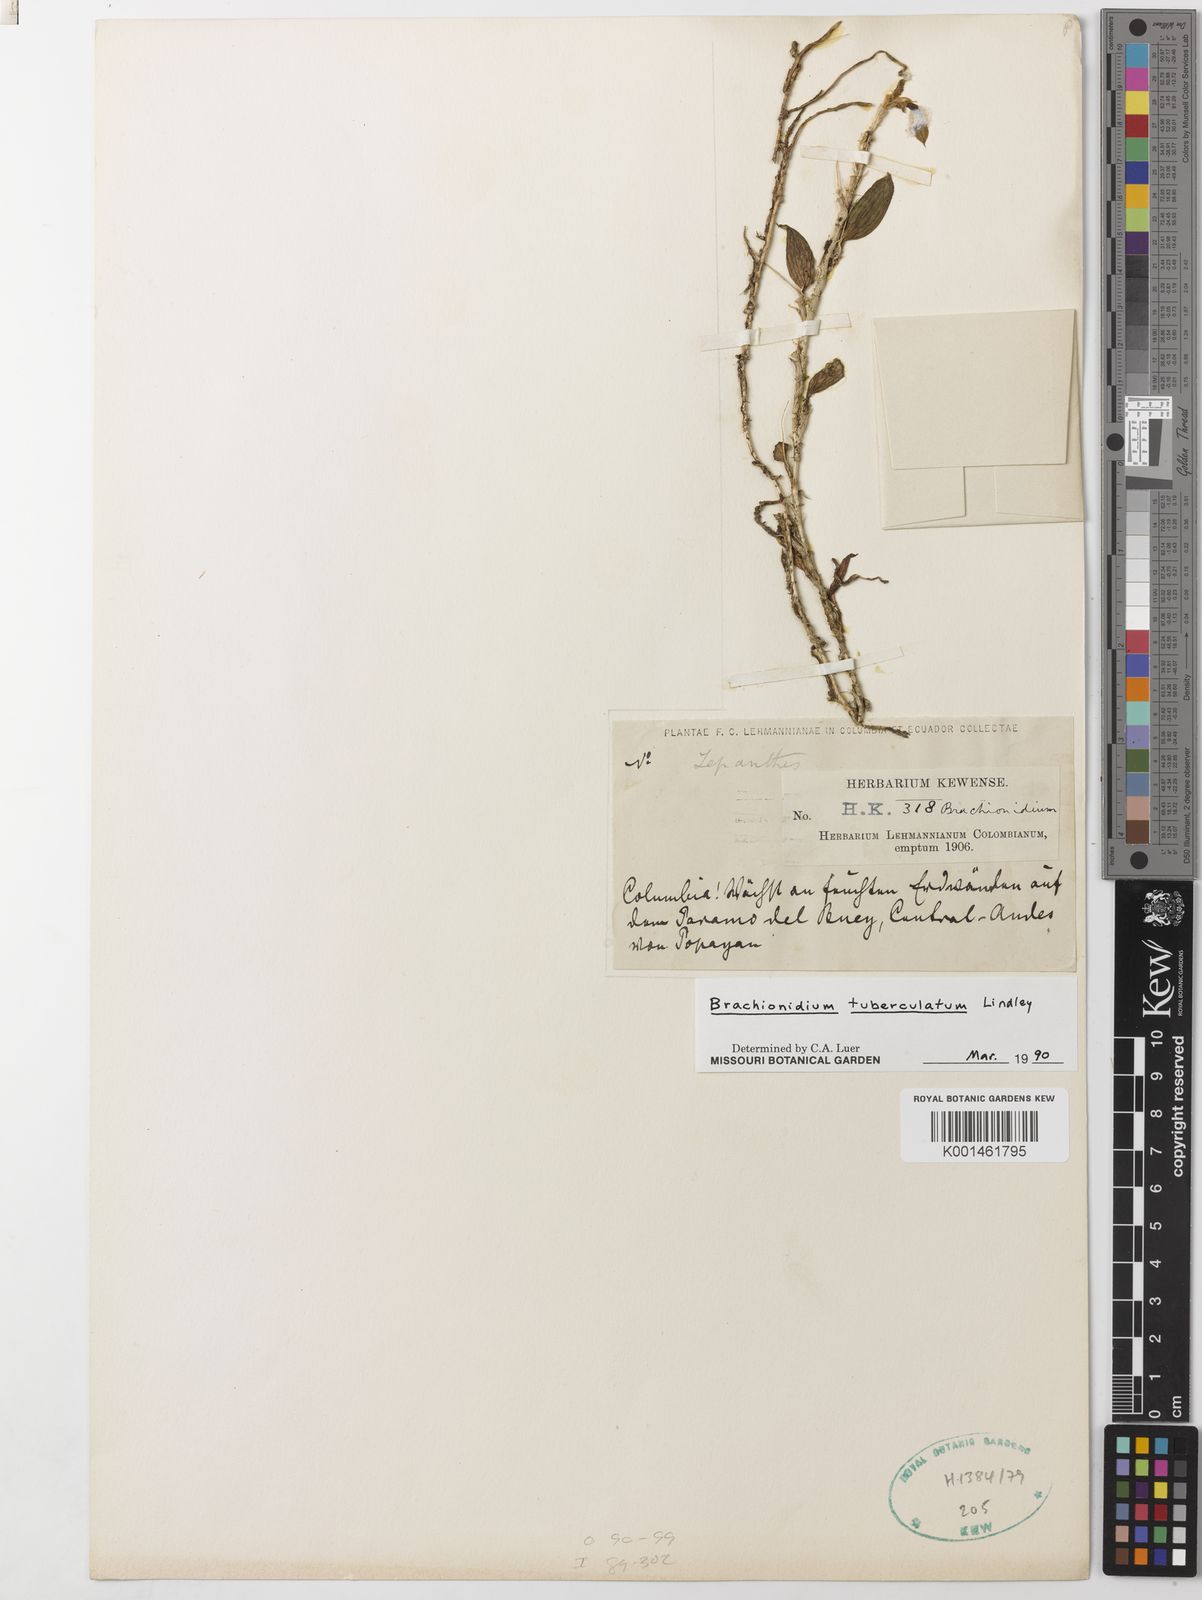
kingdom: Plantae
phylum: Tracheophyta
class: Liliopsida
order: Asparagales
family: Orchidaceae
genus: Brachionidium
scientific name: Brachionidium tuberculatum
